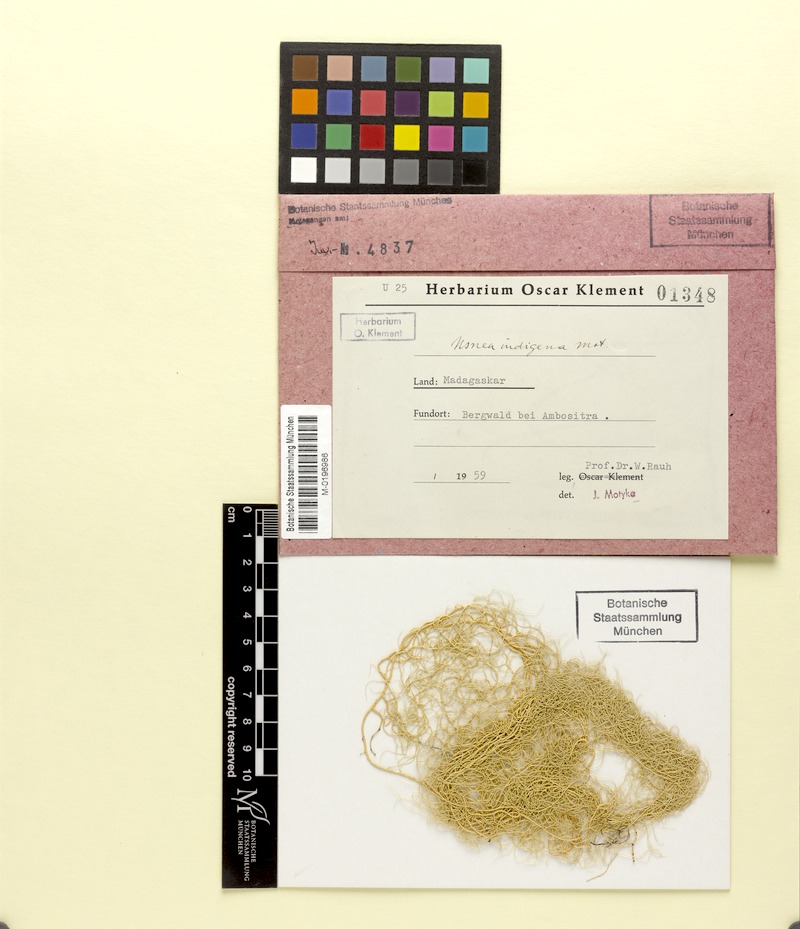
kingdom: Fungi
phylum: Ascomycota
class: Lecanoromycetes
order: Lecanorales
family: Parmeliaceae
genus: Usnea
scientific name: Usnea
